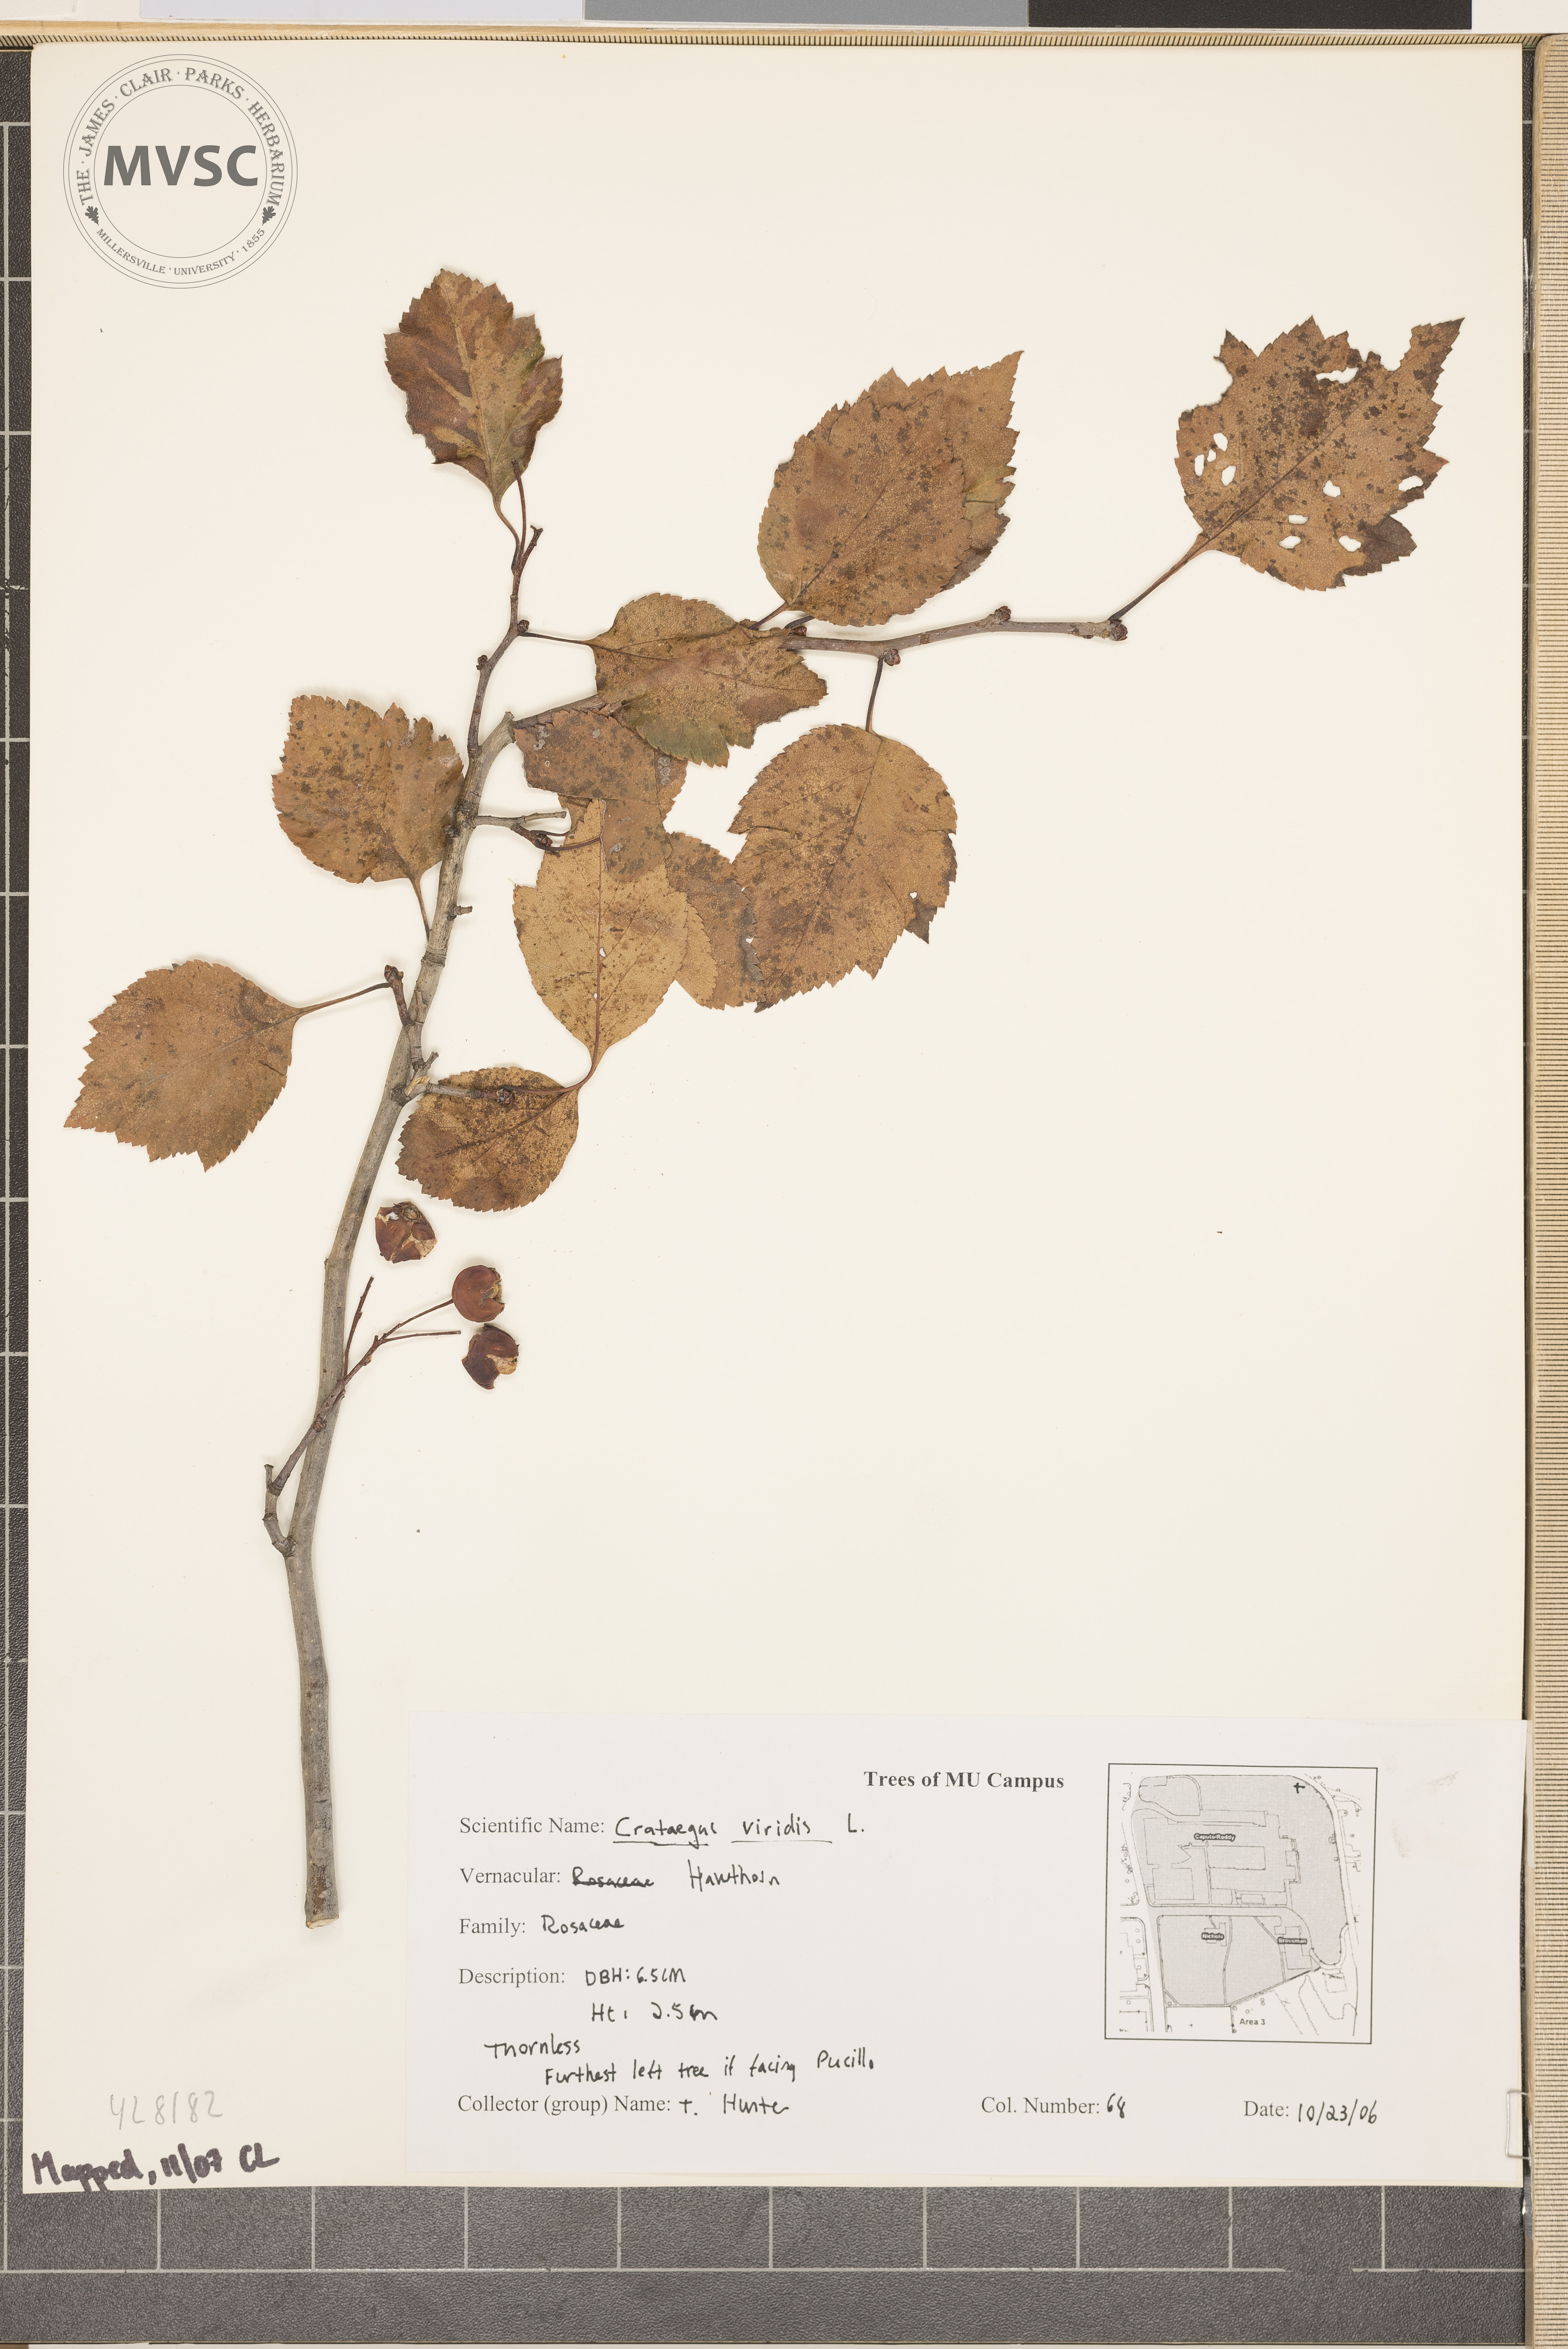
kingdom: Plantae
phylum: Tracheophyta
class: Magnoliopsida
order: Rosales
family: Rosaceae
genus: Crataegus
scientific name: Crataegus viridis
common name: Hawthorn
